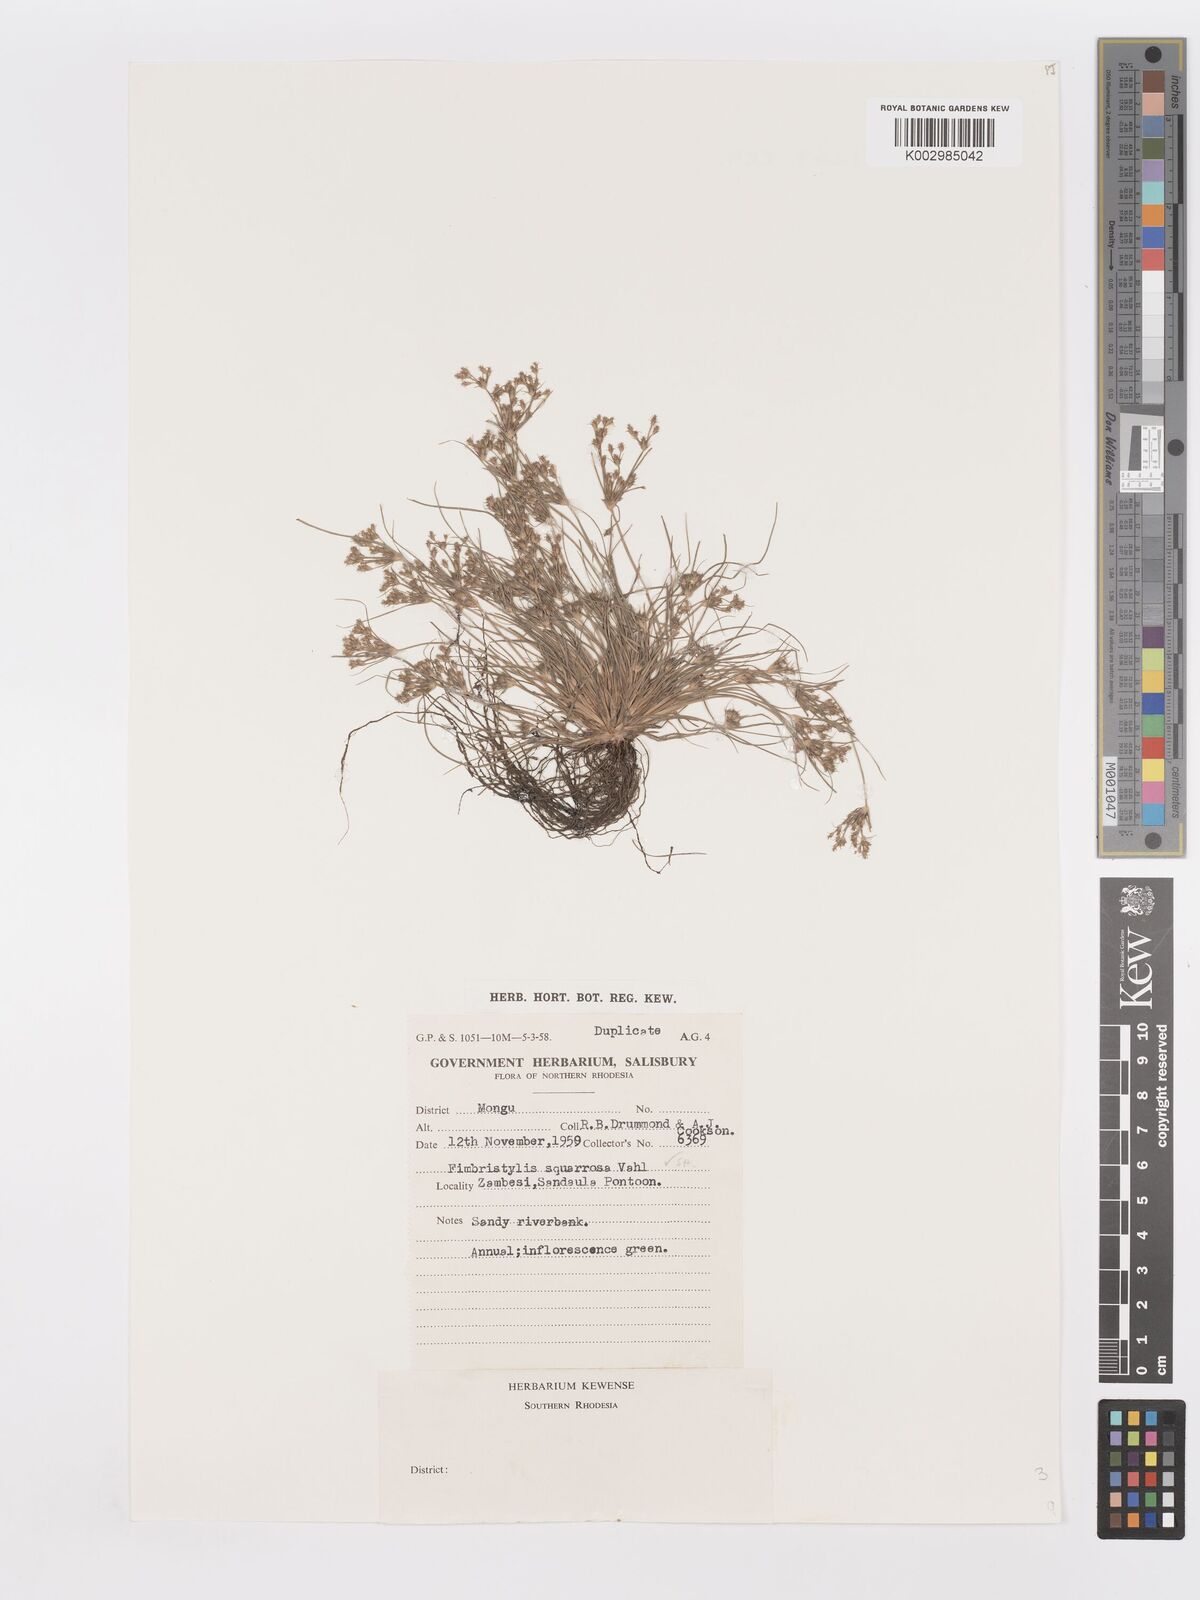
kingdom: Plantae
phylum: Tracheophyta
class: Liliopsida
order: Poales
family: Cyperaceae
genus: Fimbristylis
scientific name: Fimbristylis squarrosa
